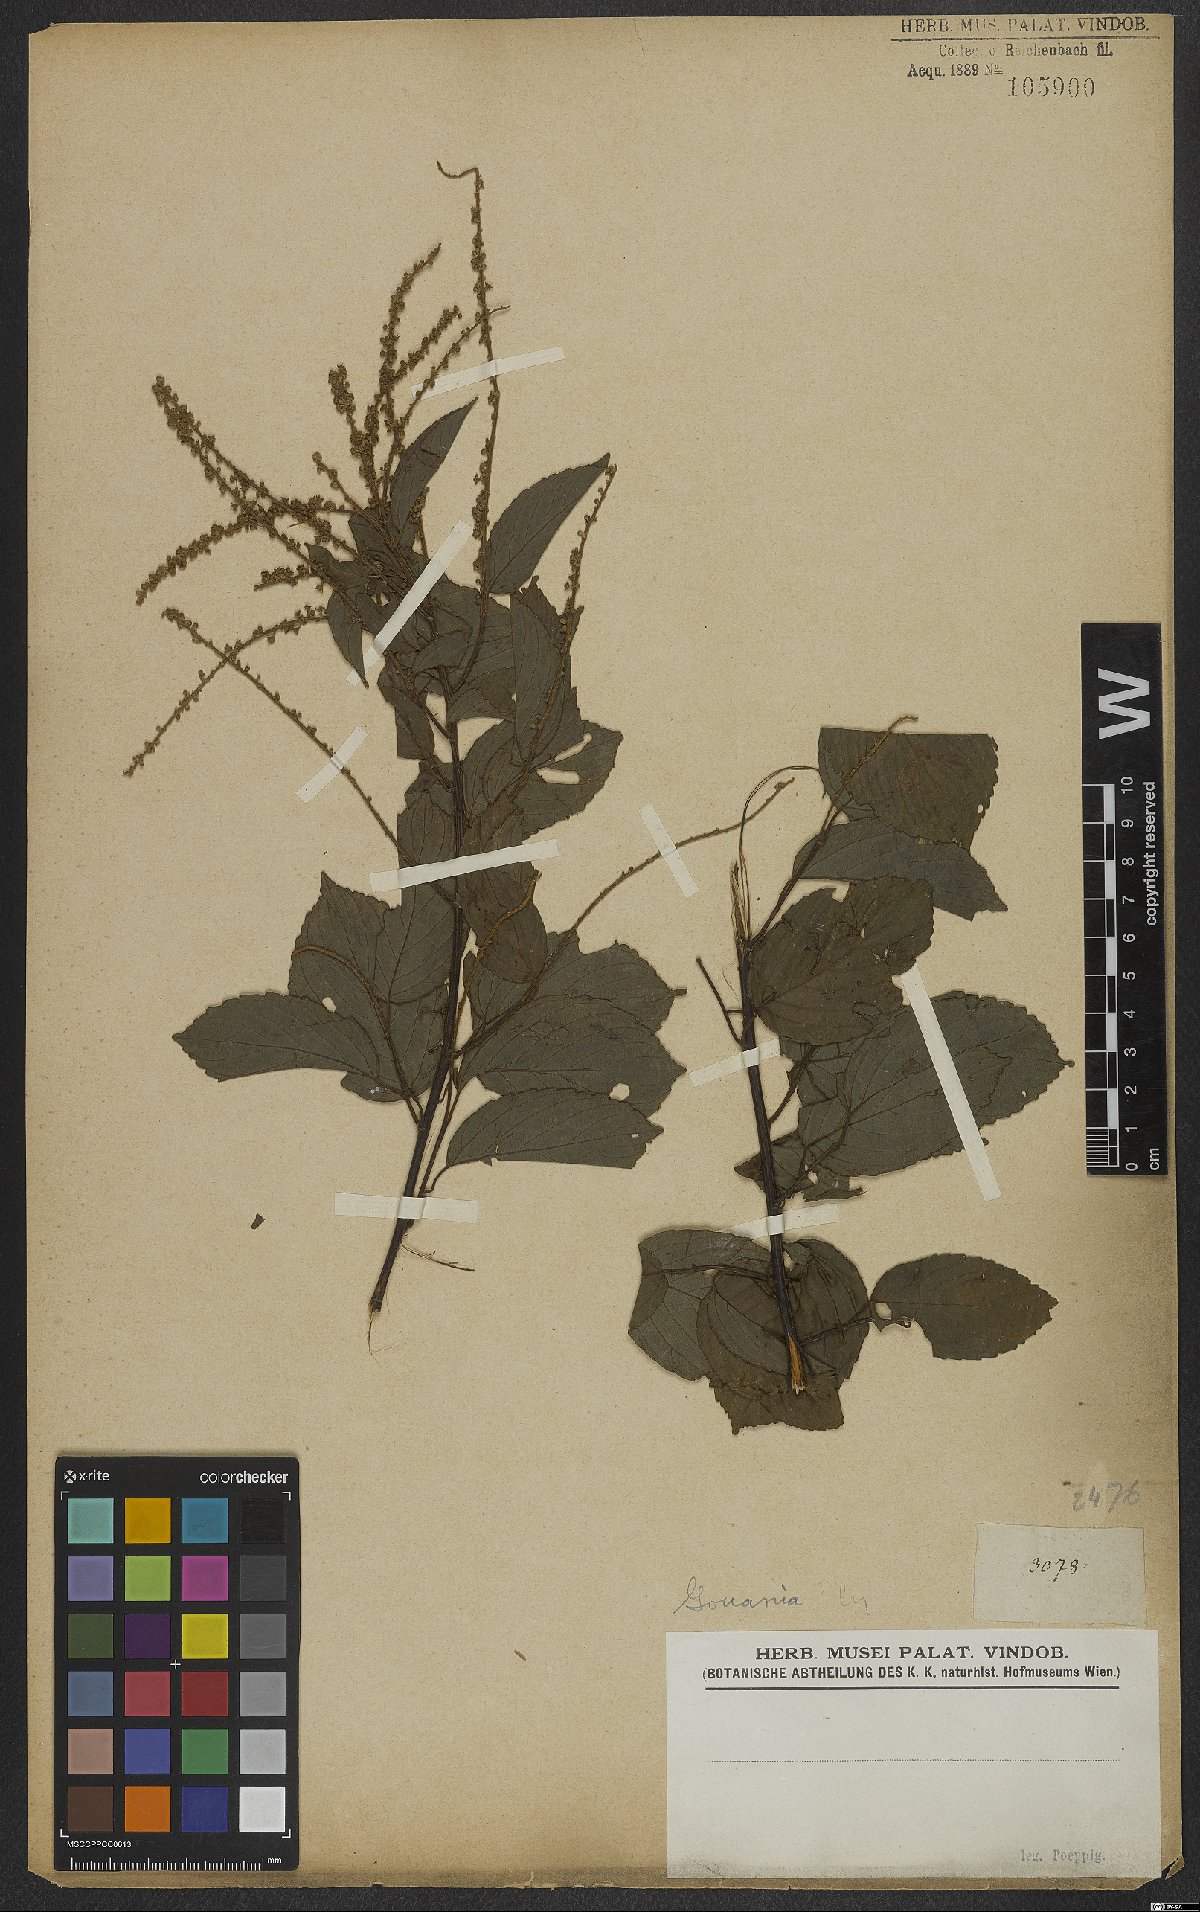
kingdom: Plantae
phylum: Tracheophyta
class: Magnoliopsida
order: Rosales
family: Rhamnaceae
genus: Gouania
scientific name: Gouania
